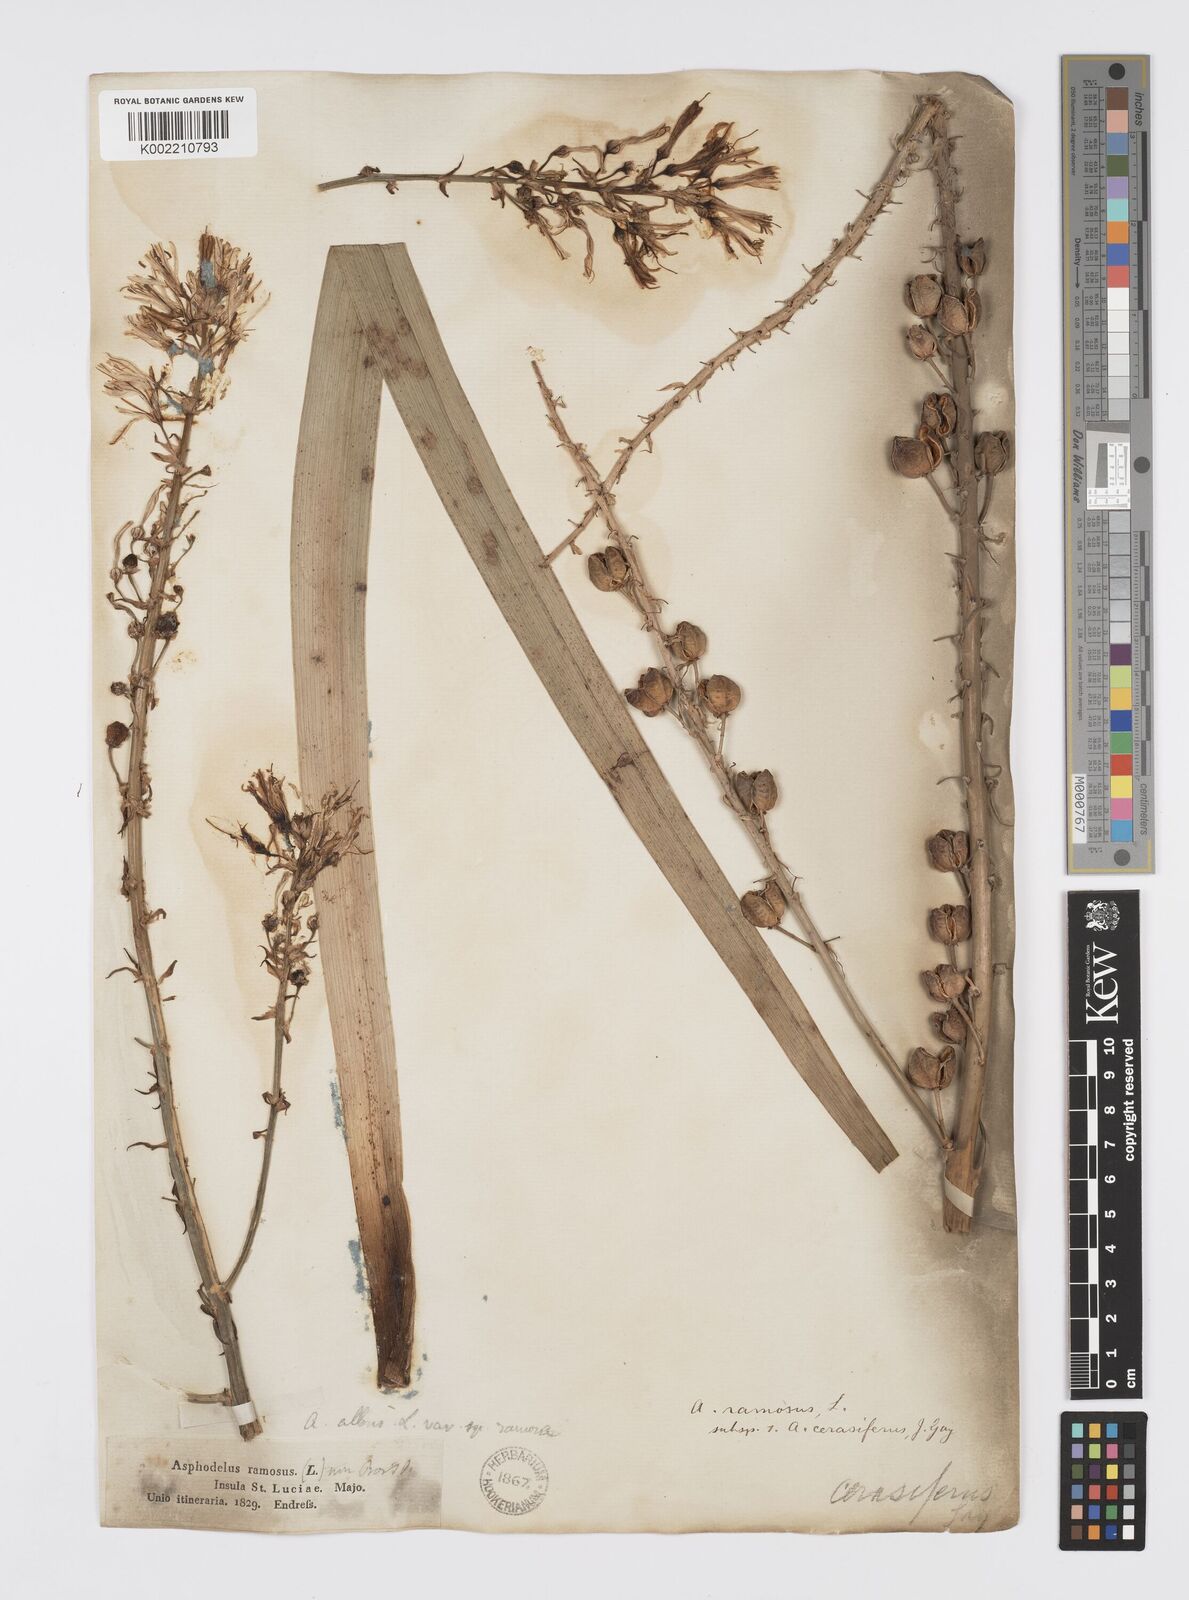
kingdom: Plantae
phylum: Tracheophyta
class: Liliopsida
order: Asparagales
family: Asphodelaceae
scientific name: Asphodelaceae
